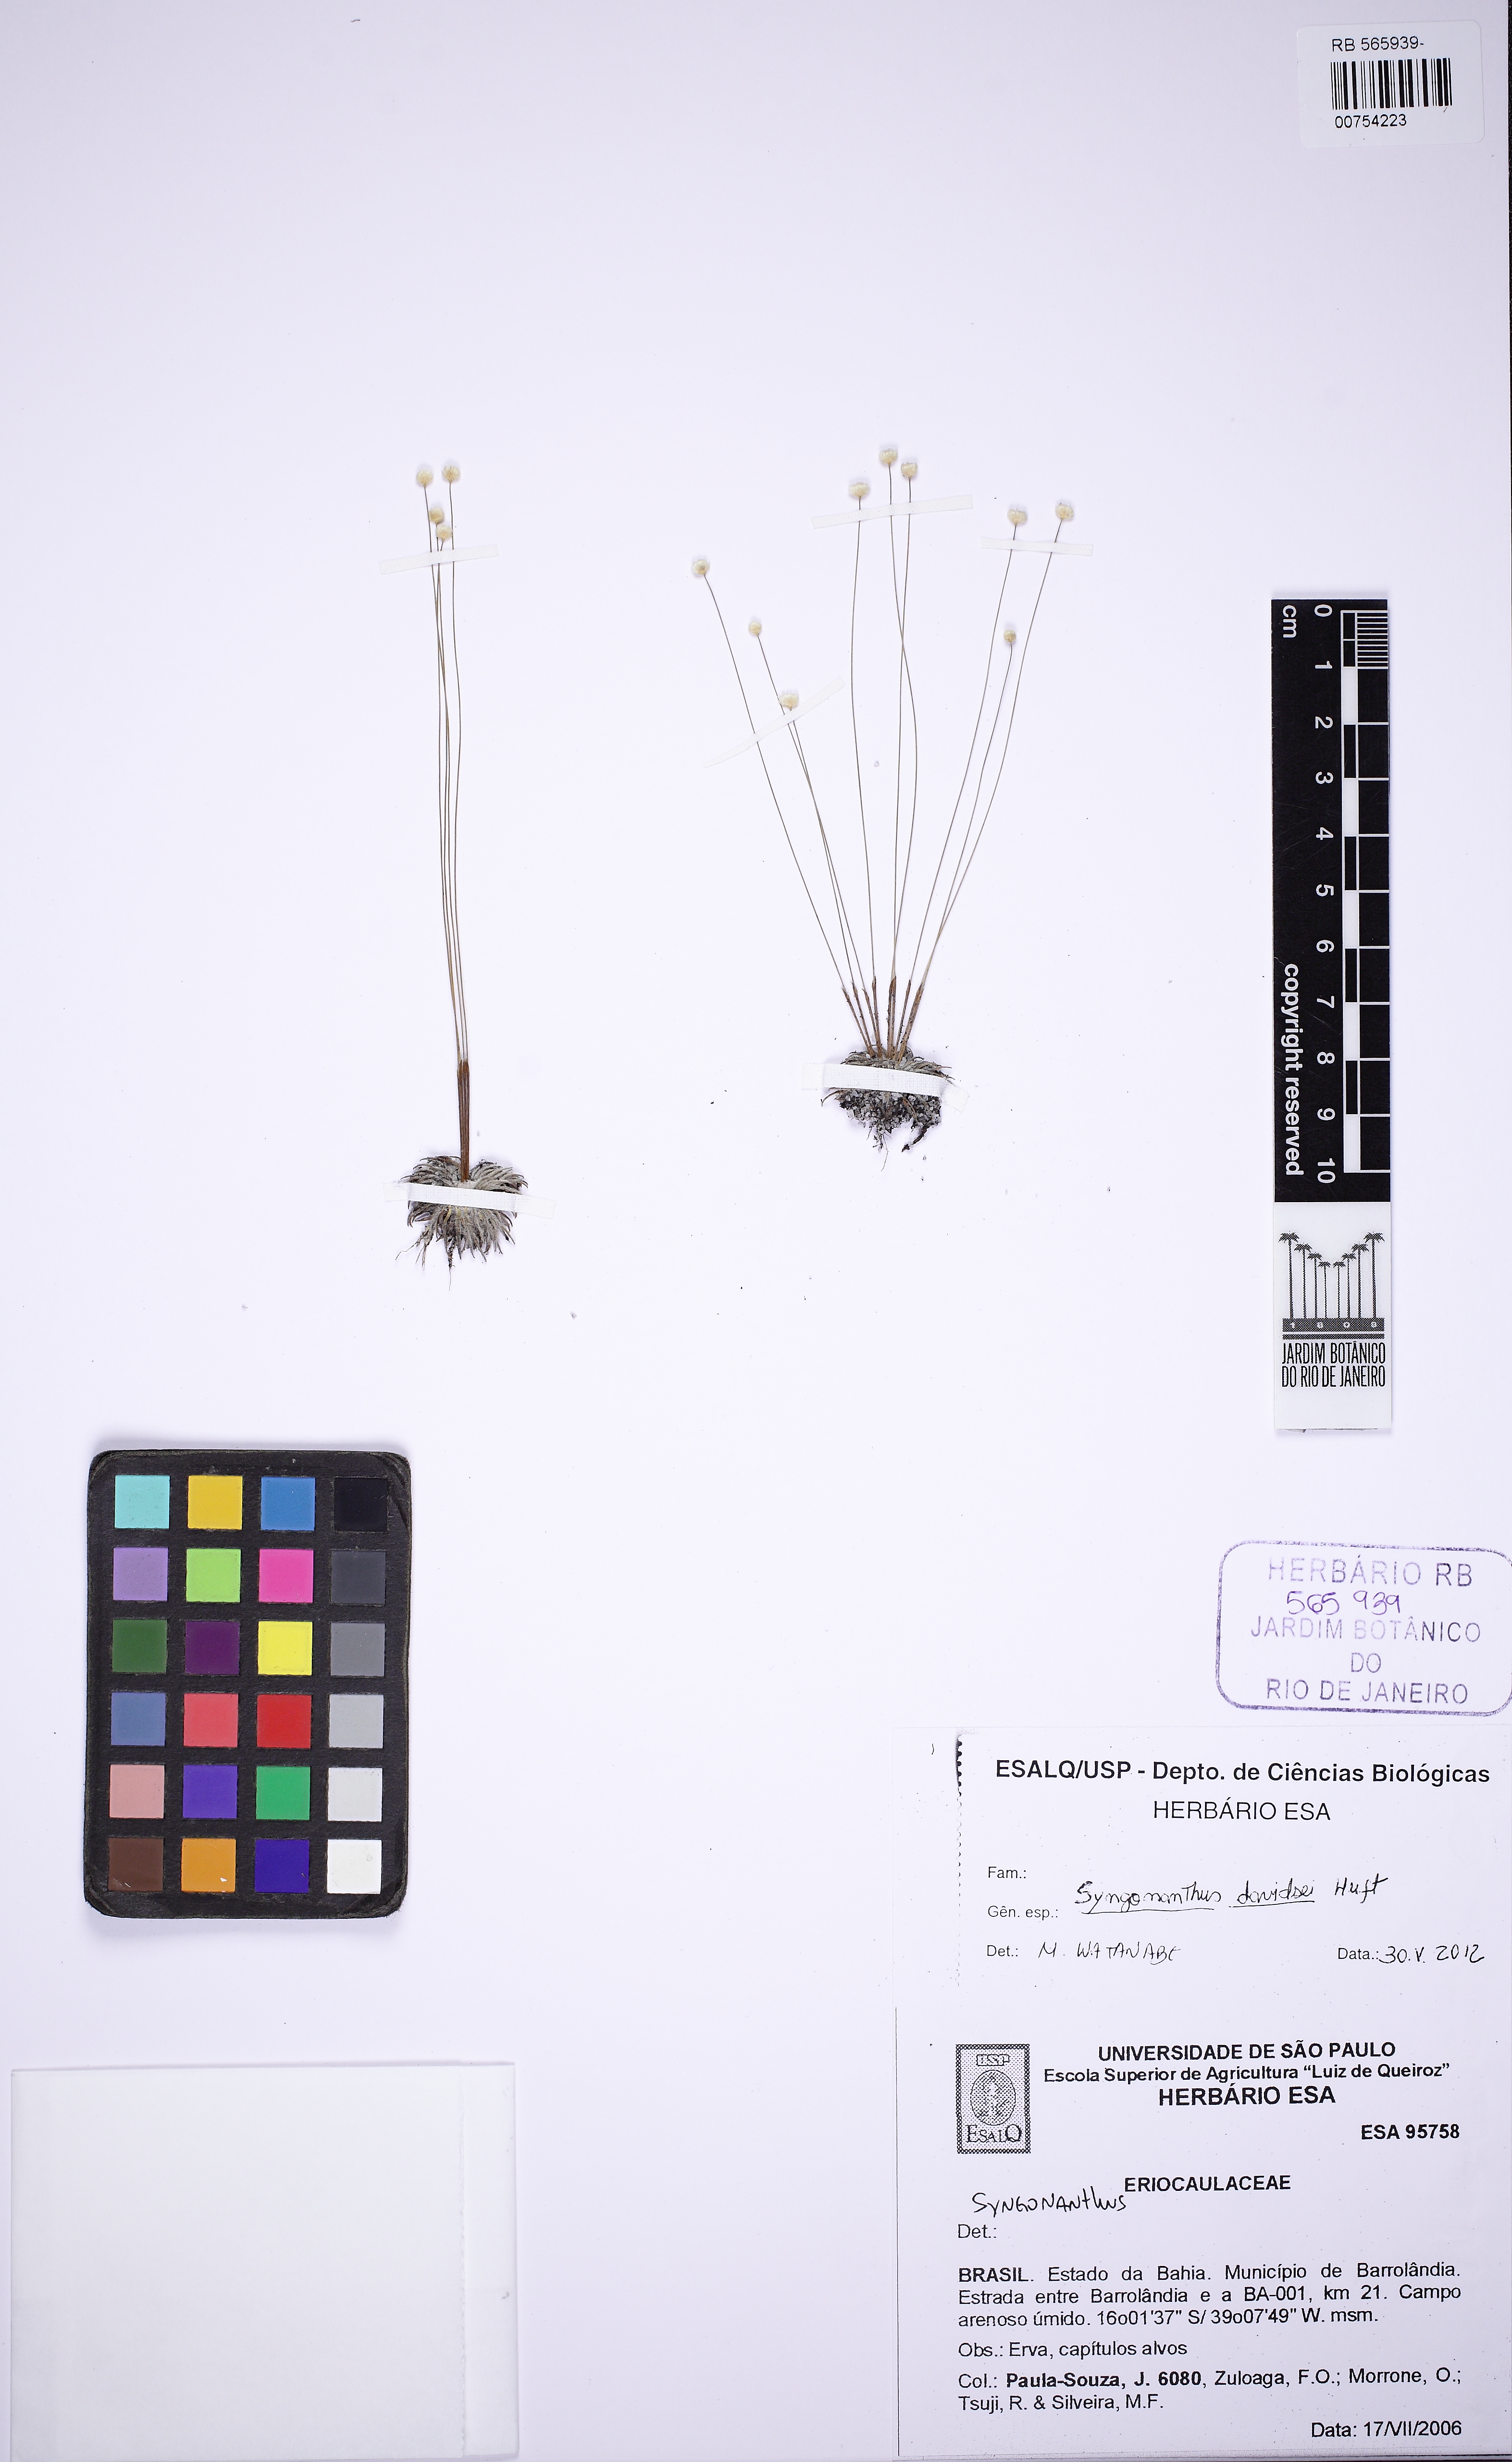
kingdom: Plantae
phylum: Tracheophyta
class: Liliopsida
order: Poales
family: Eriocaulaceae
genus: Syngonanthus
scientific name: Syngonanthus davidsei
